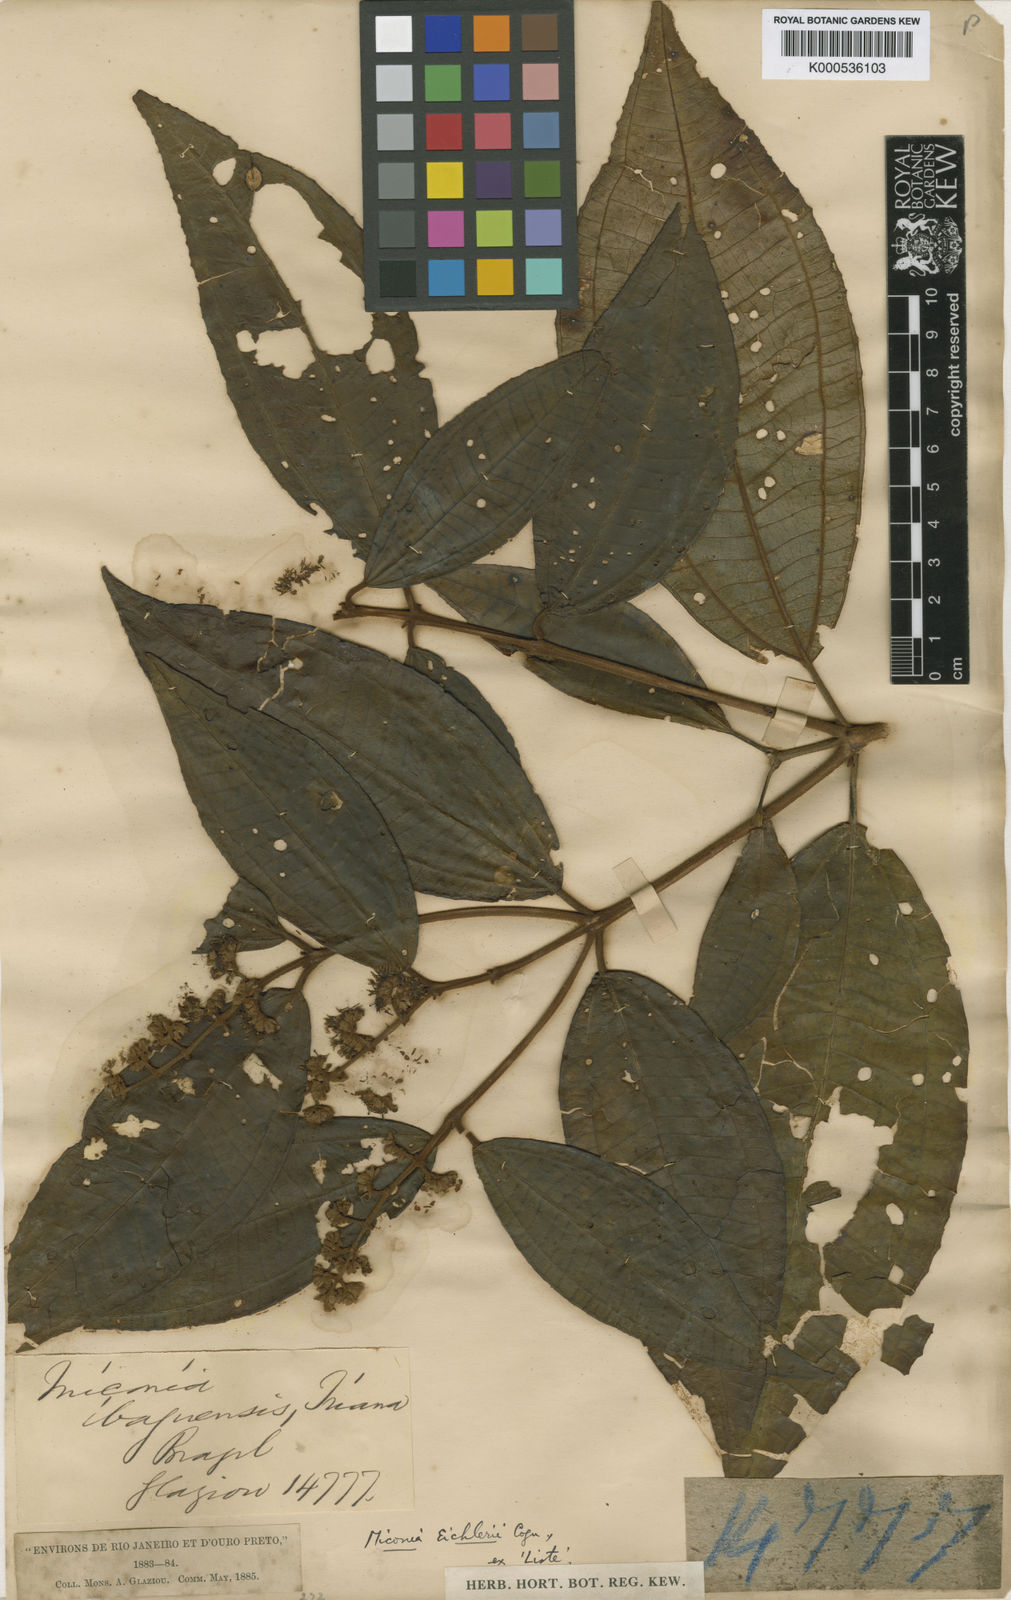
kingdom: Plantae
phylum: Tracheophyta
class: Magnoliopsida
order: Myrtales
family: Melastomataceae
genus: Miconia
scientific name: Miconia valtheri
